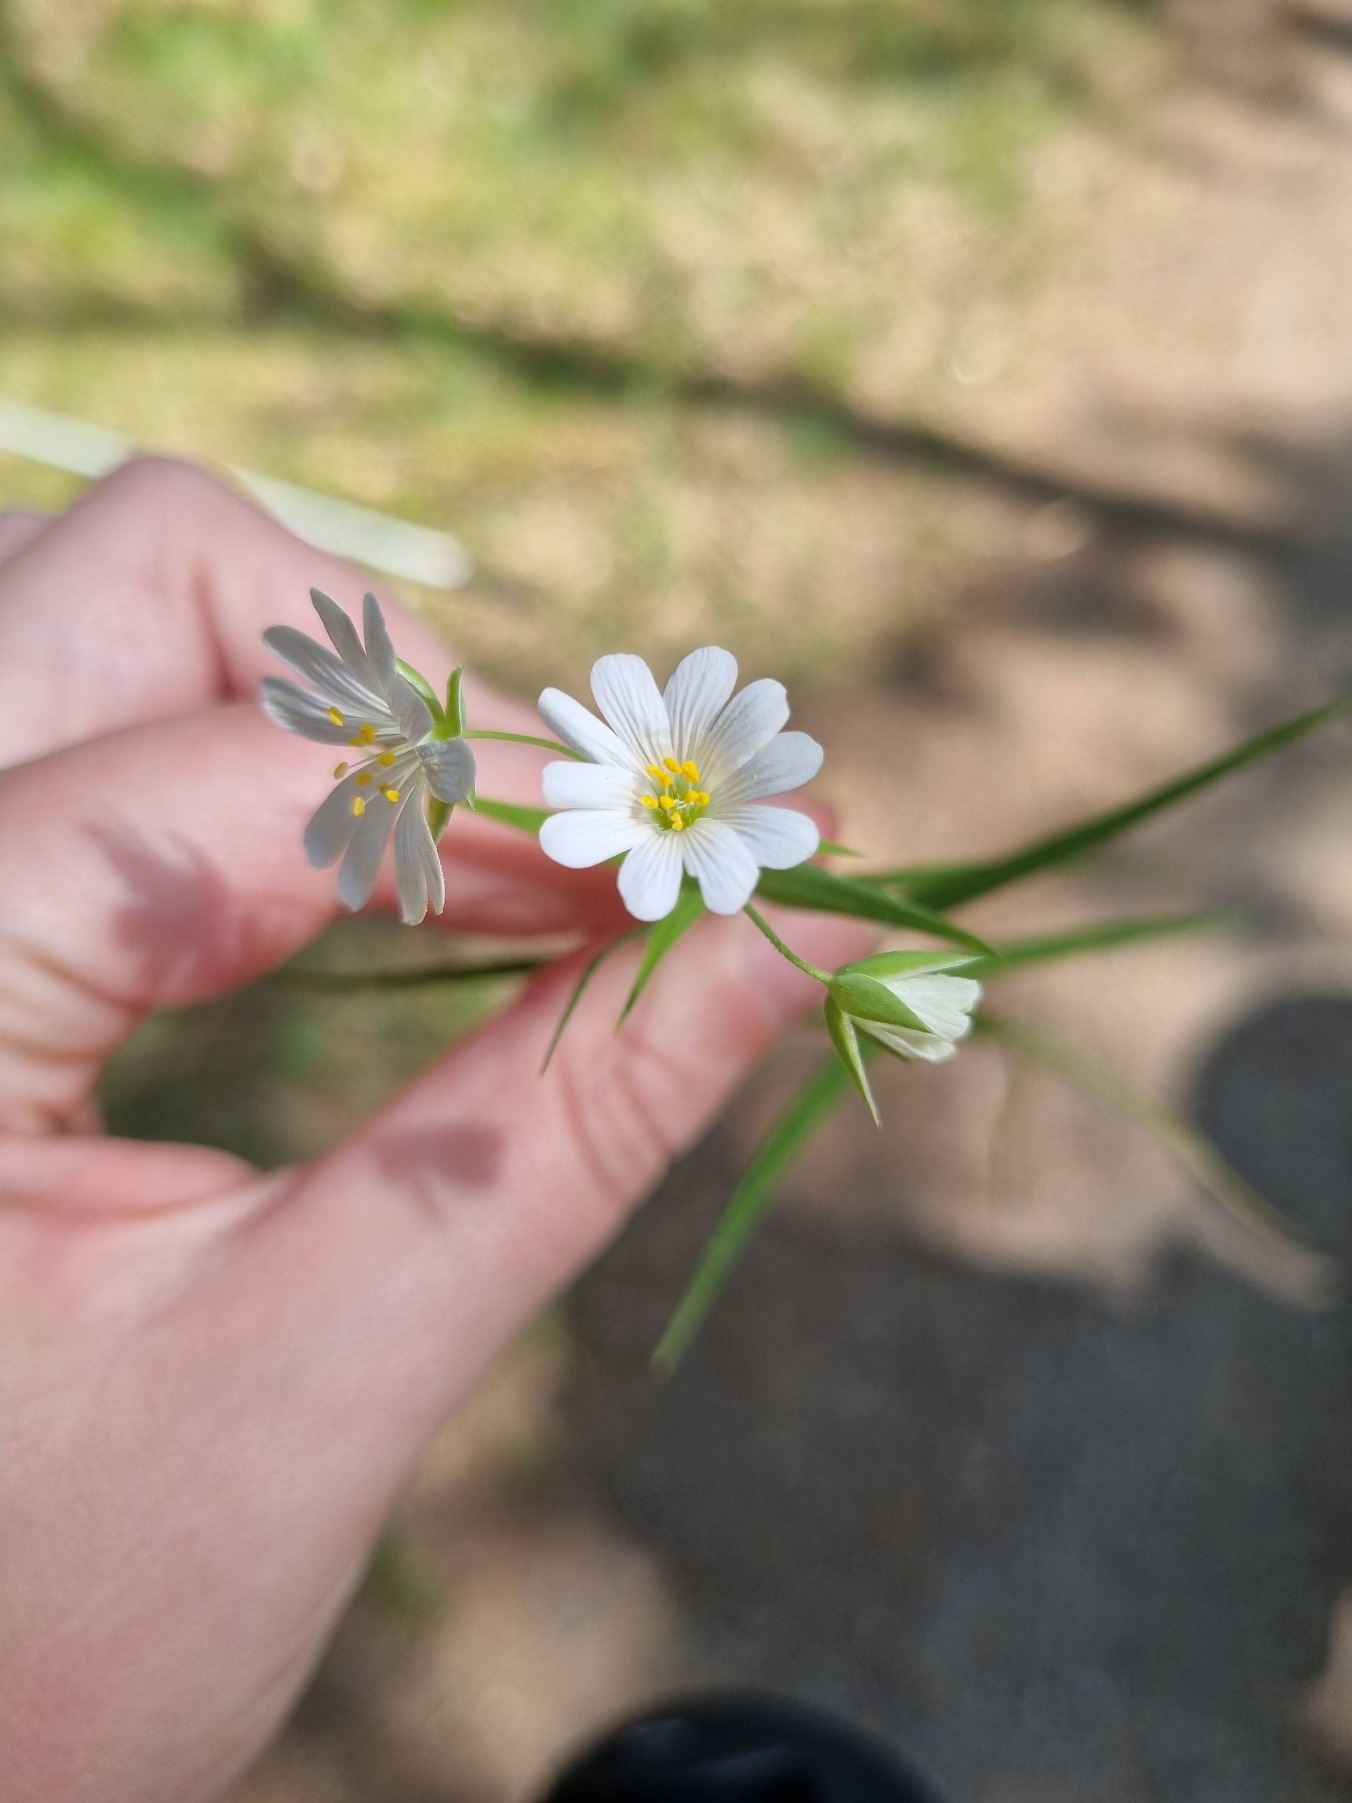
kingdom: Plantae
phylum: Tracheophyta
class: Magnoliopsida
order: Caryophyllales
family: Caryophyllaceae
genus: Rabelera
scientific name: Rabelera holostea
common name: Stor fladstjerne
